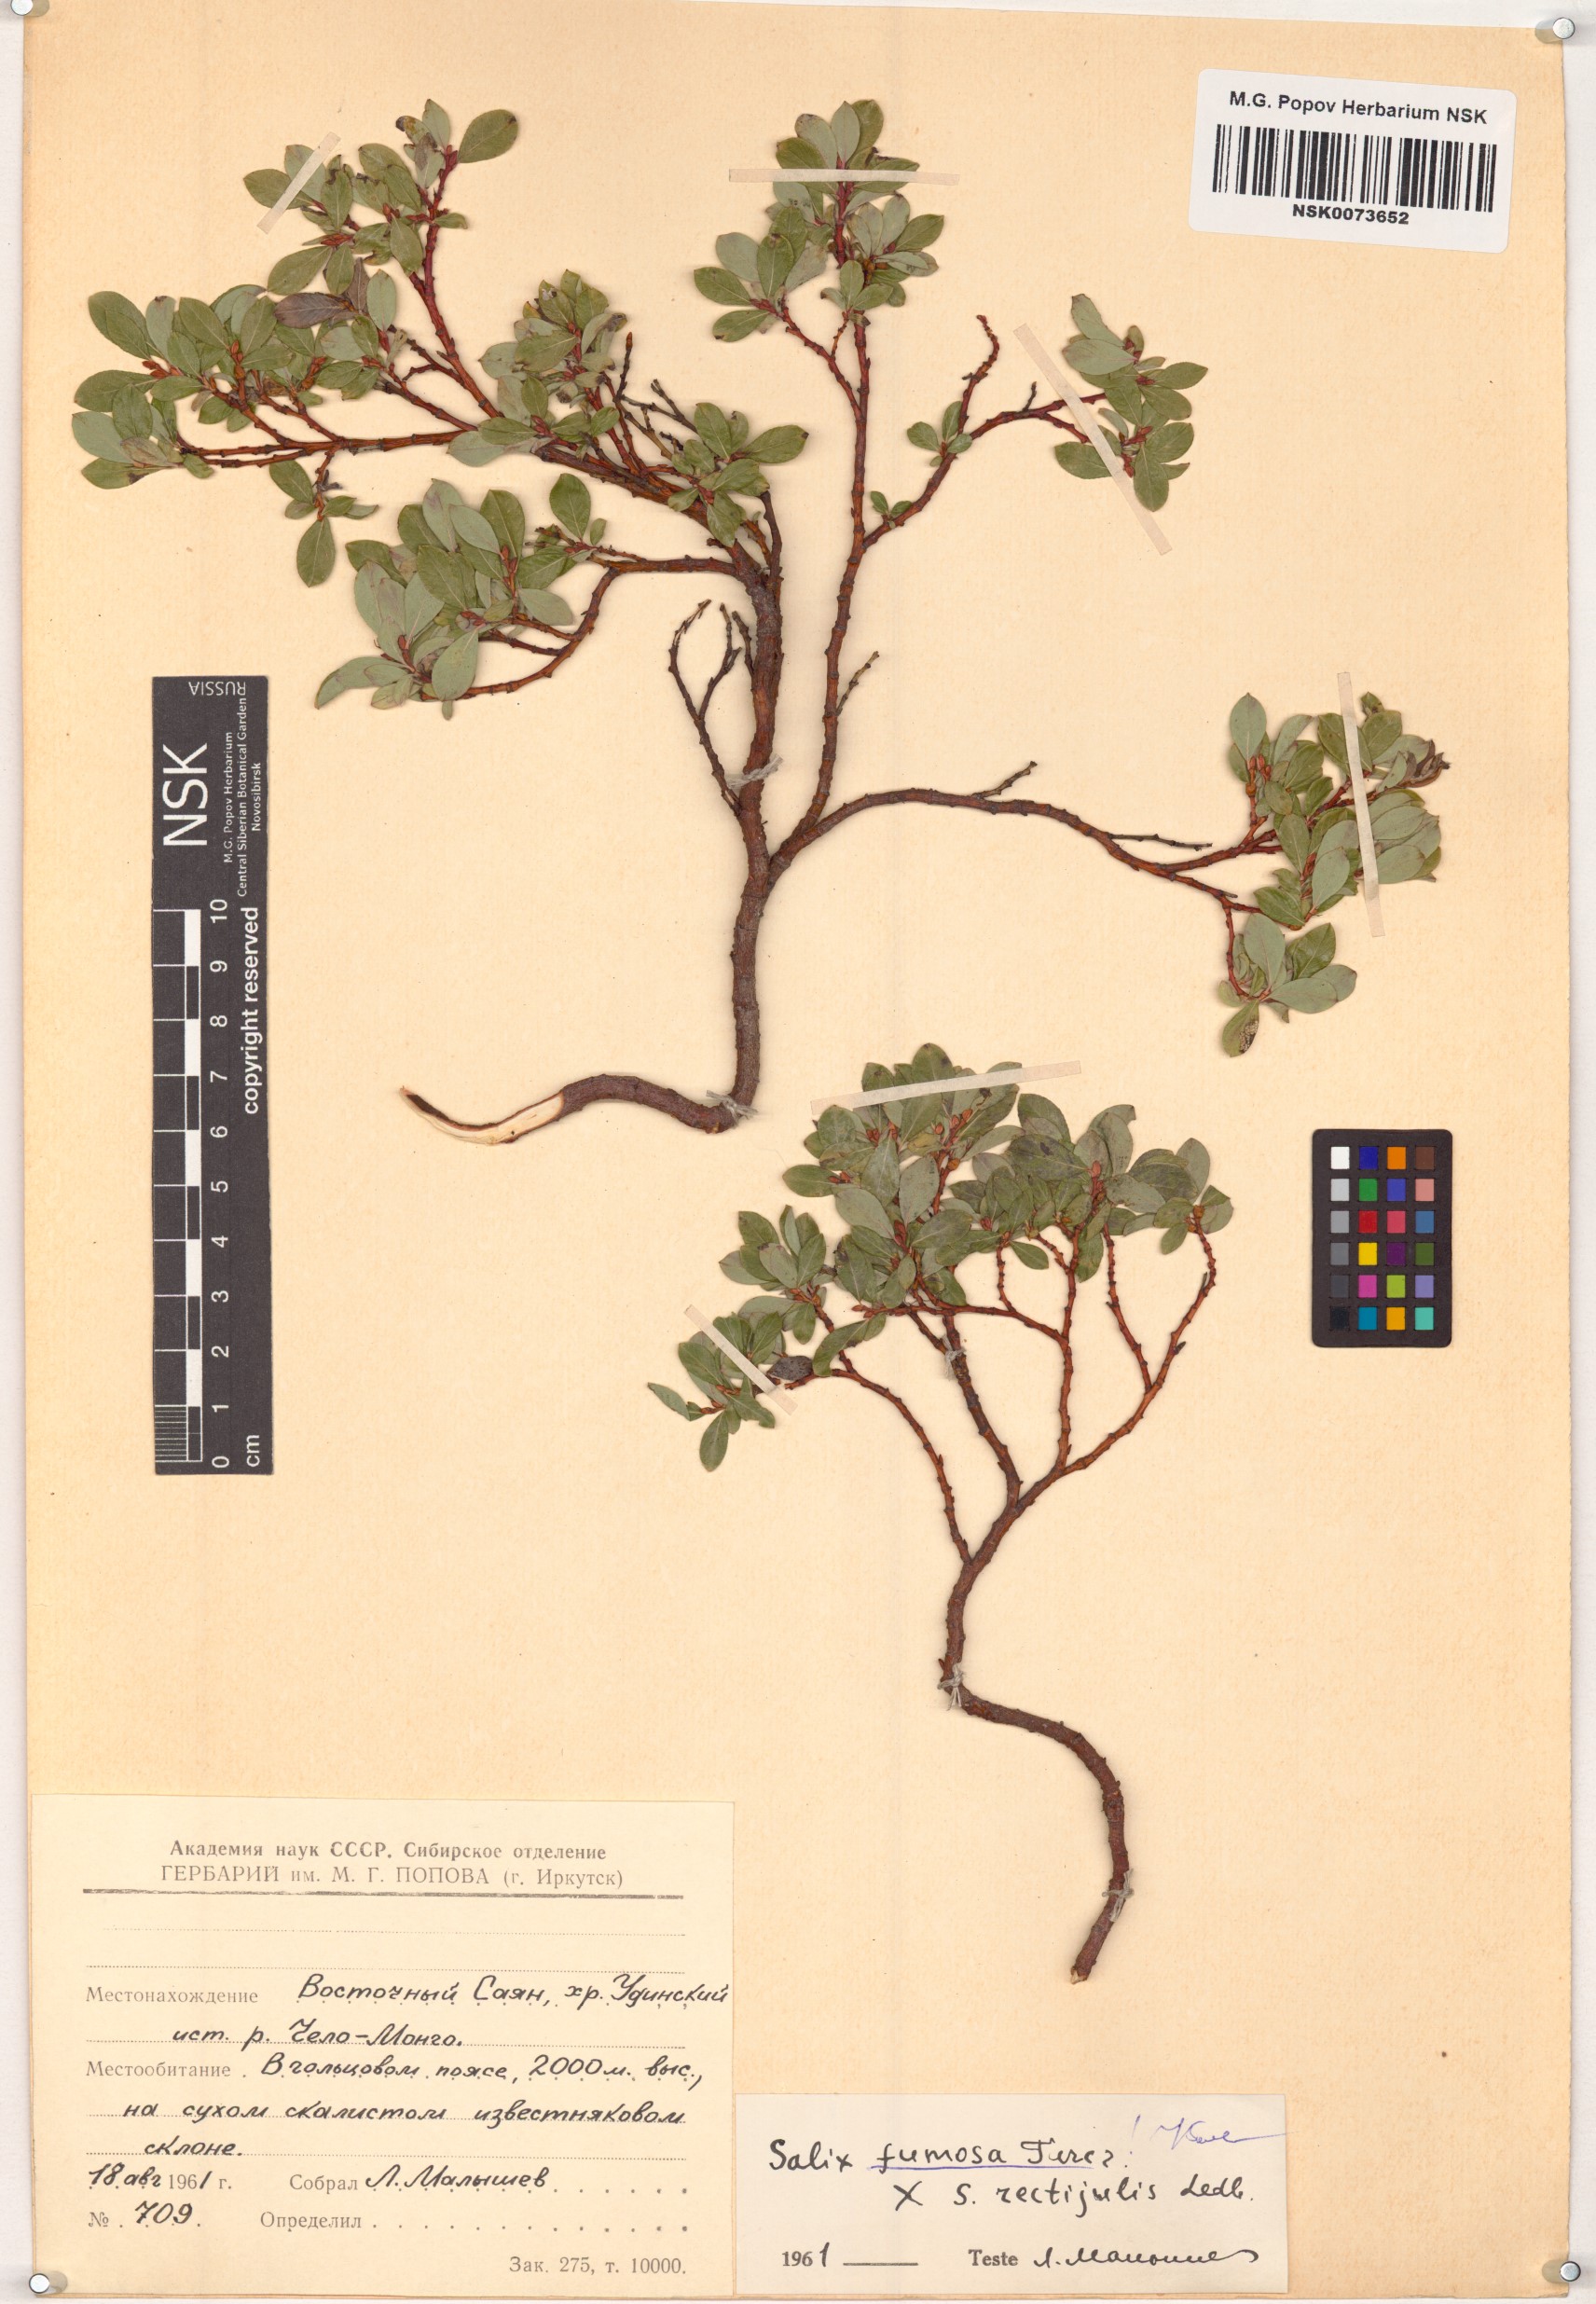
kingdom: Plantae
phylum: Tracheophyta
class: Magnoliopsida
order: Malpighiales
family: Salicaceae
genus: Salix
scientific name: Salix saxatilis
